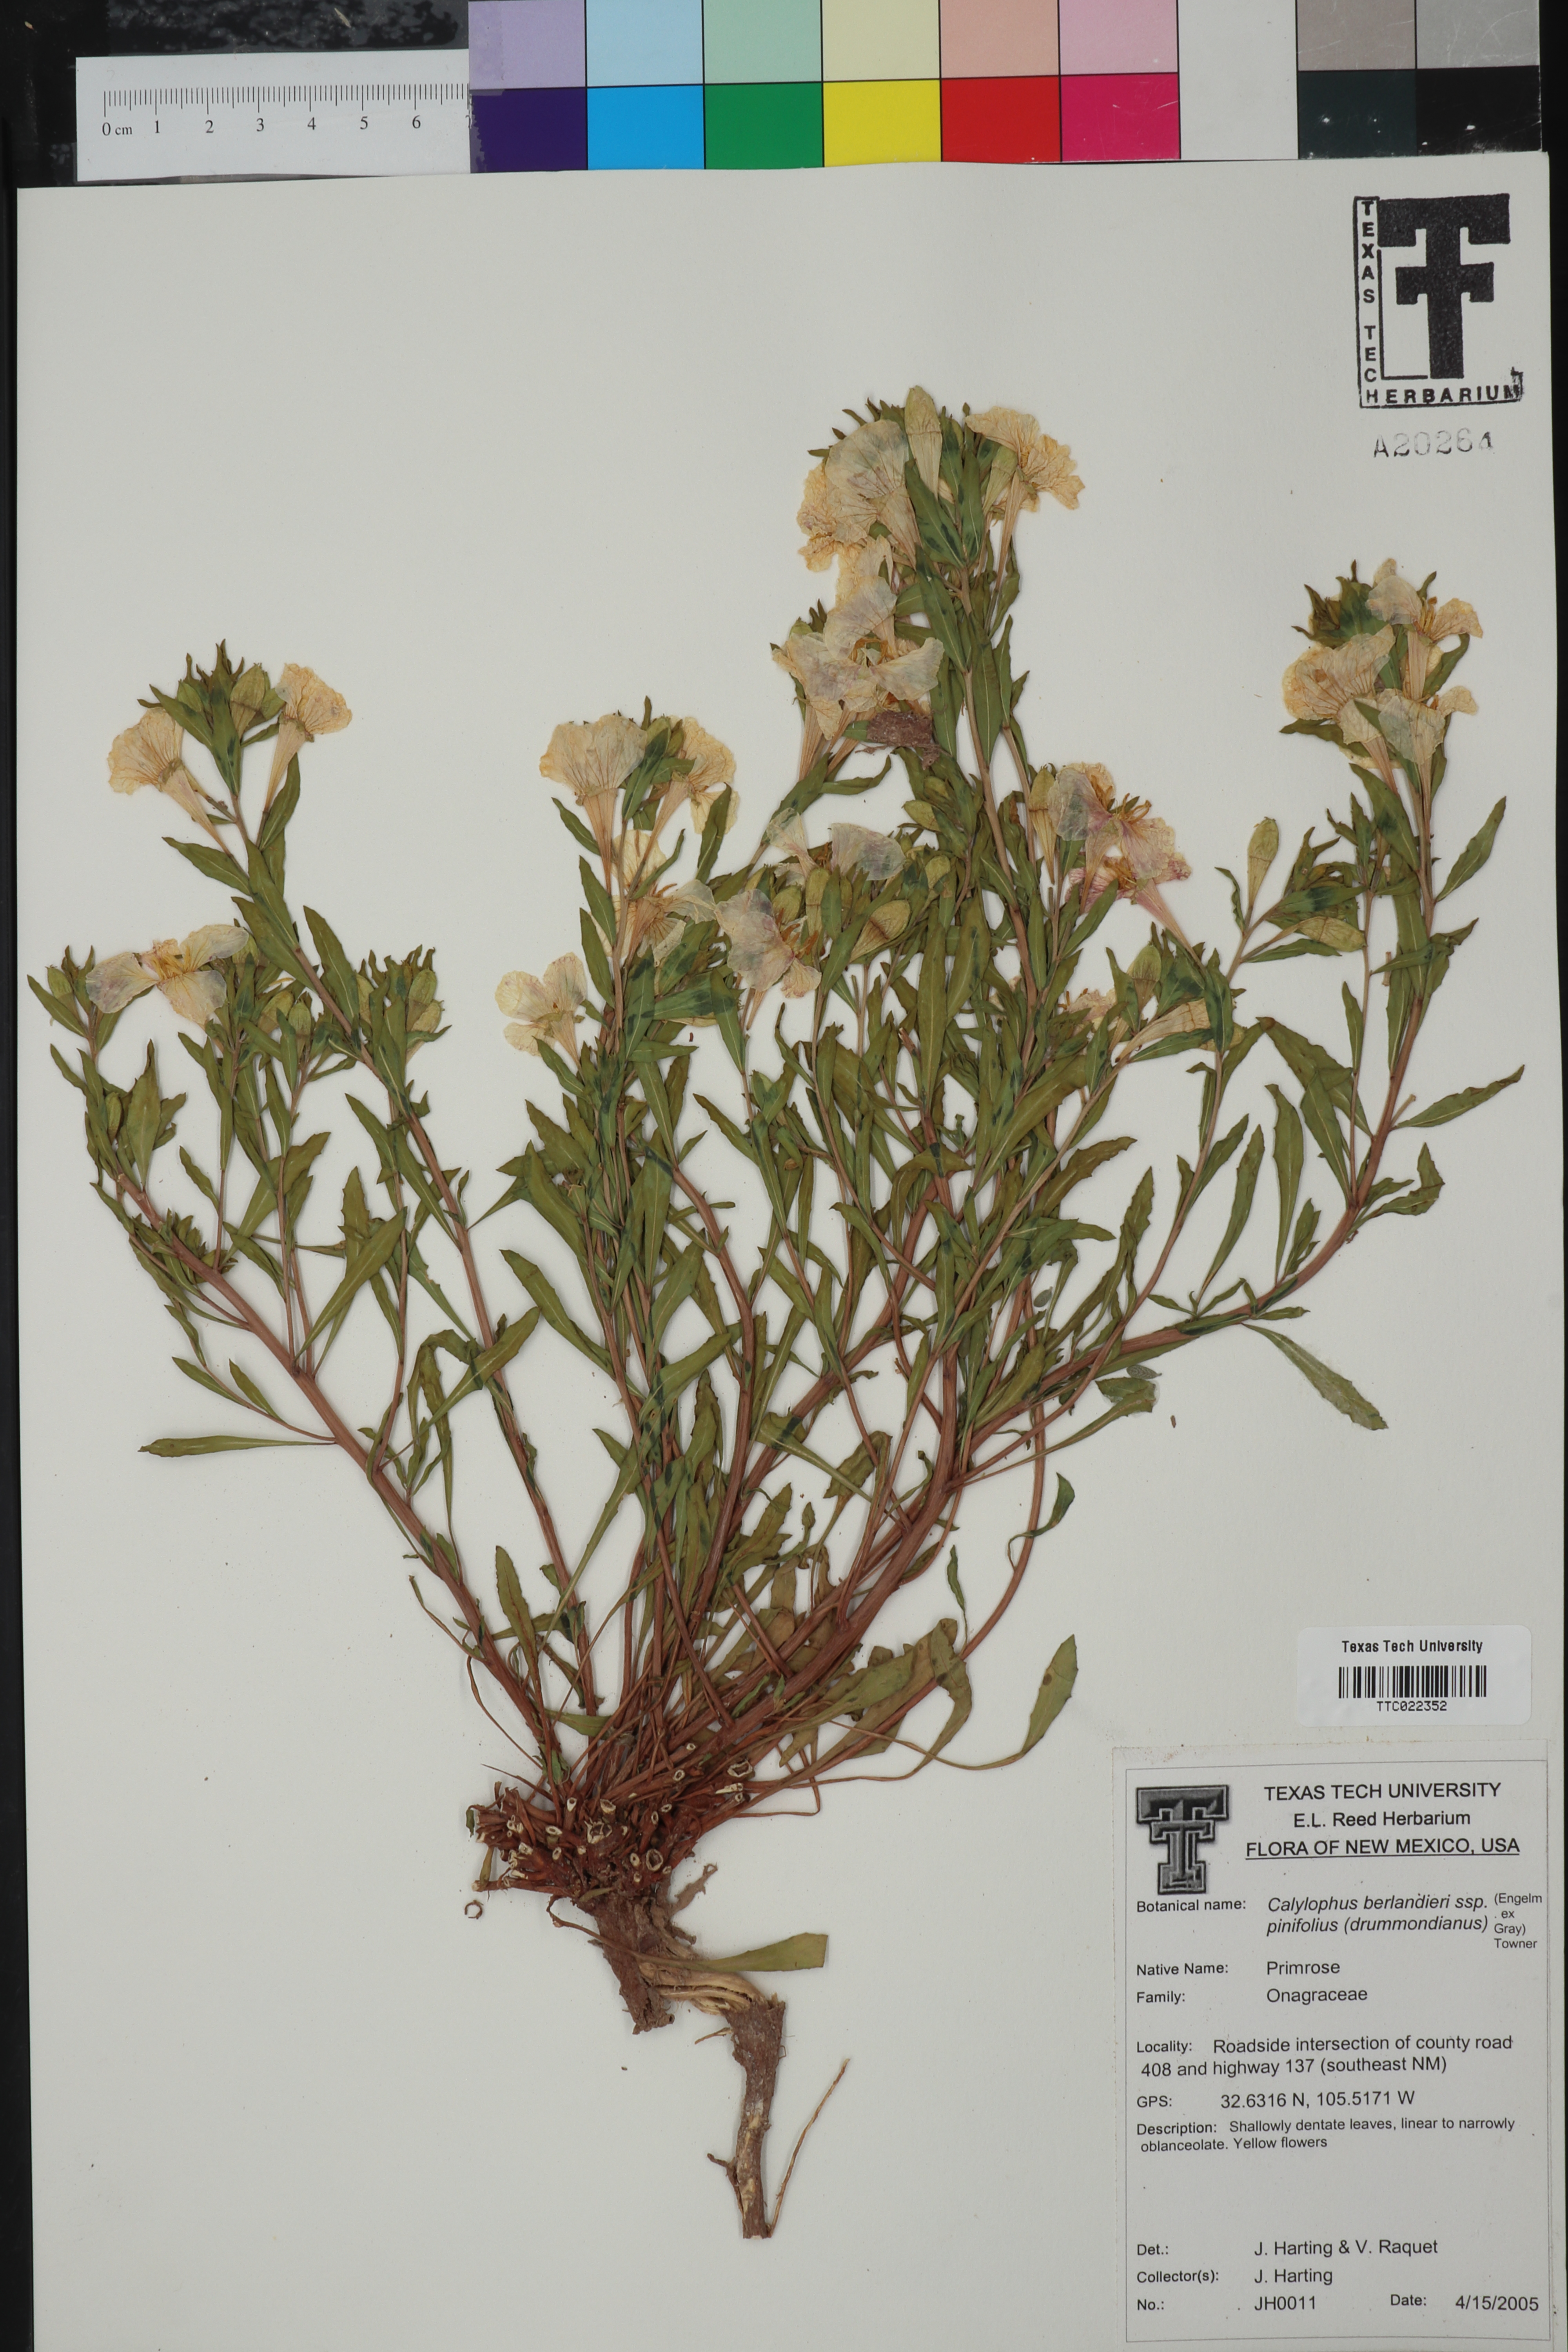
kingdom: Plantae
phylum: Tracheophyta
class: Magnoliopsida
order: Myrtales
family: Onagraceae
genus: Oenothera
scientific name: Oenothera capillifolia
